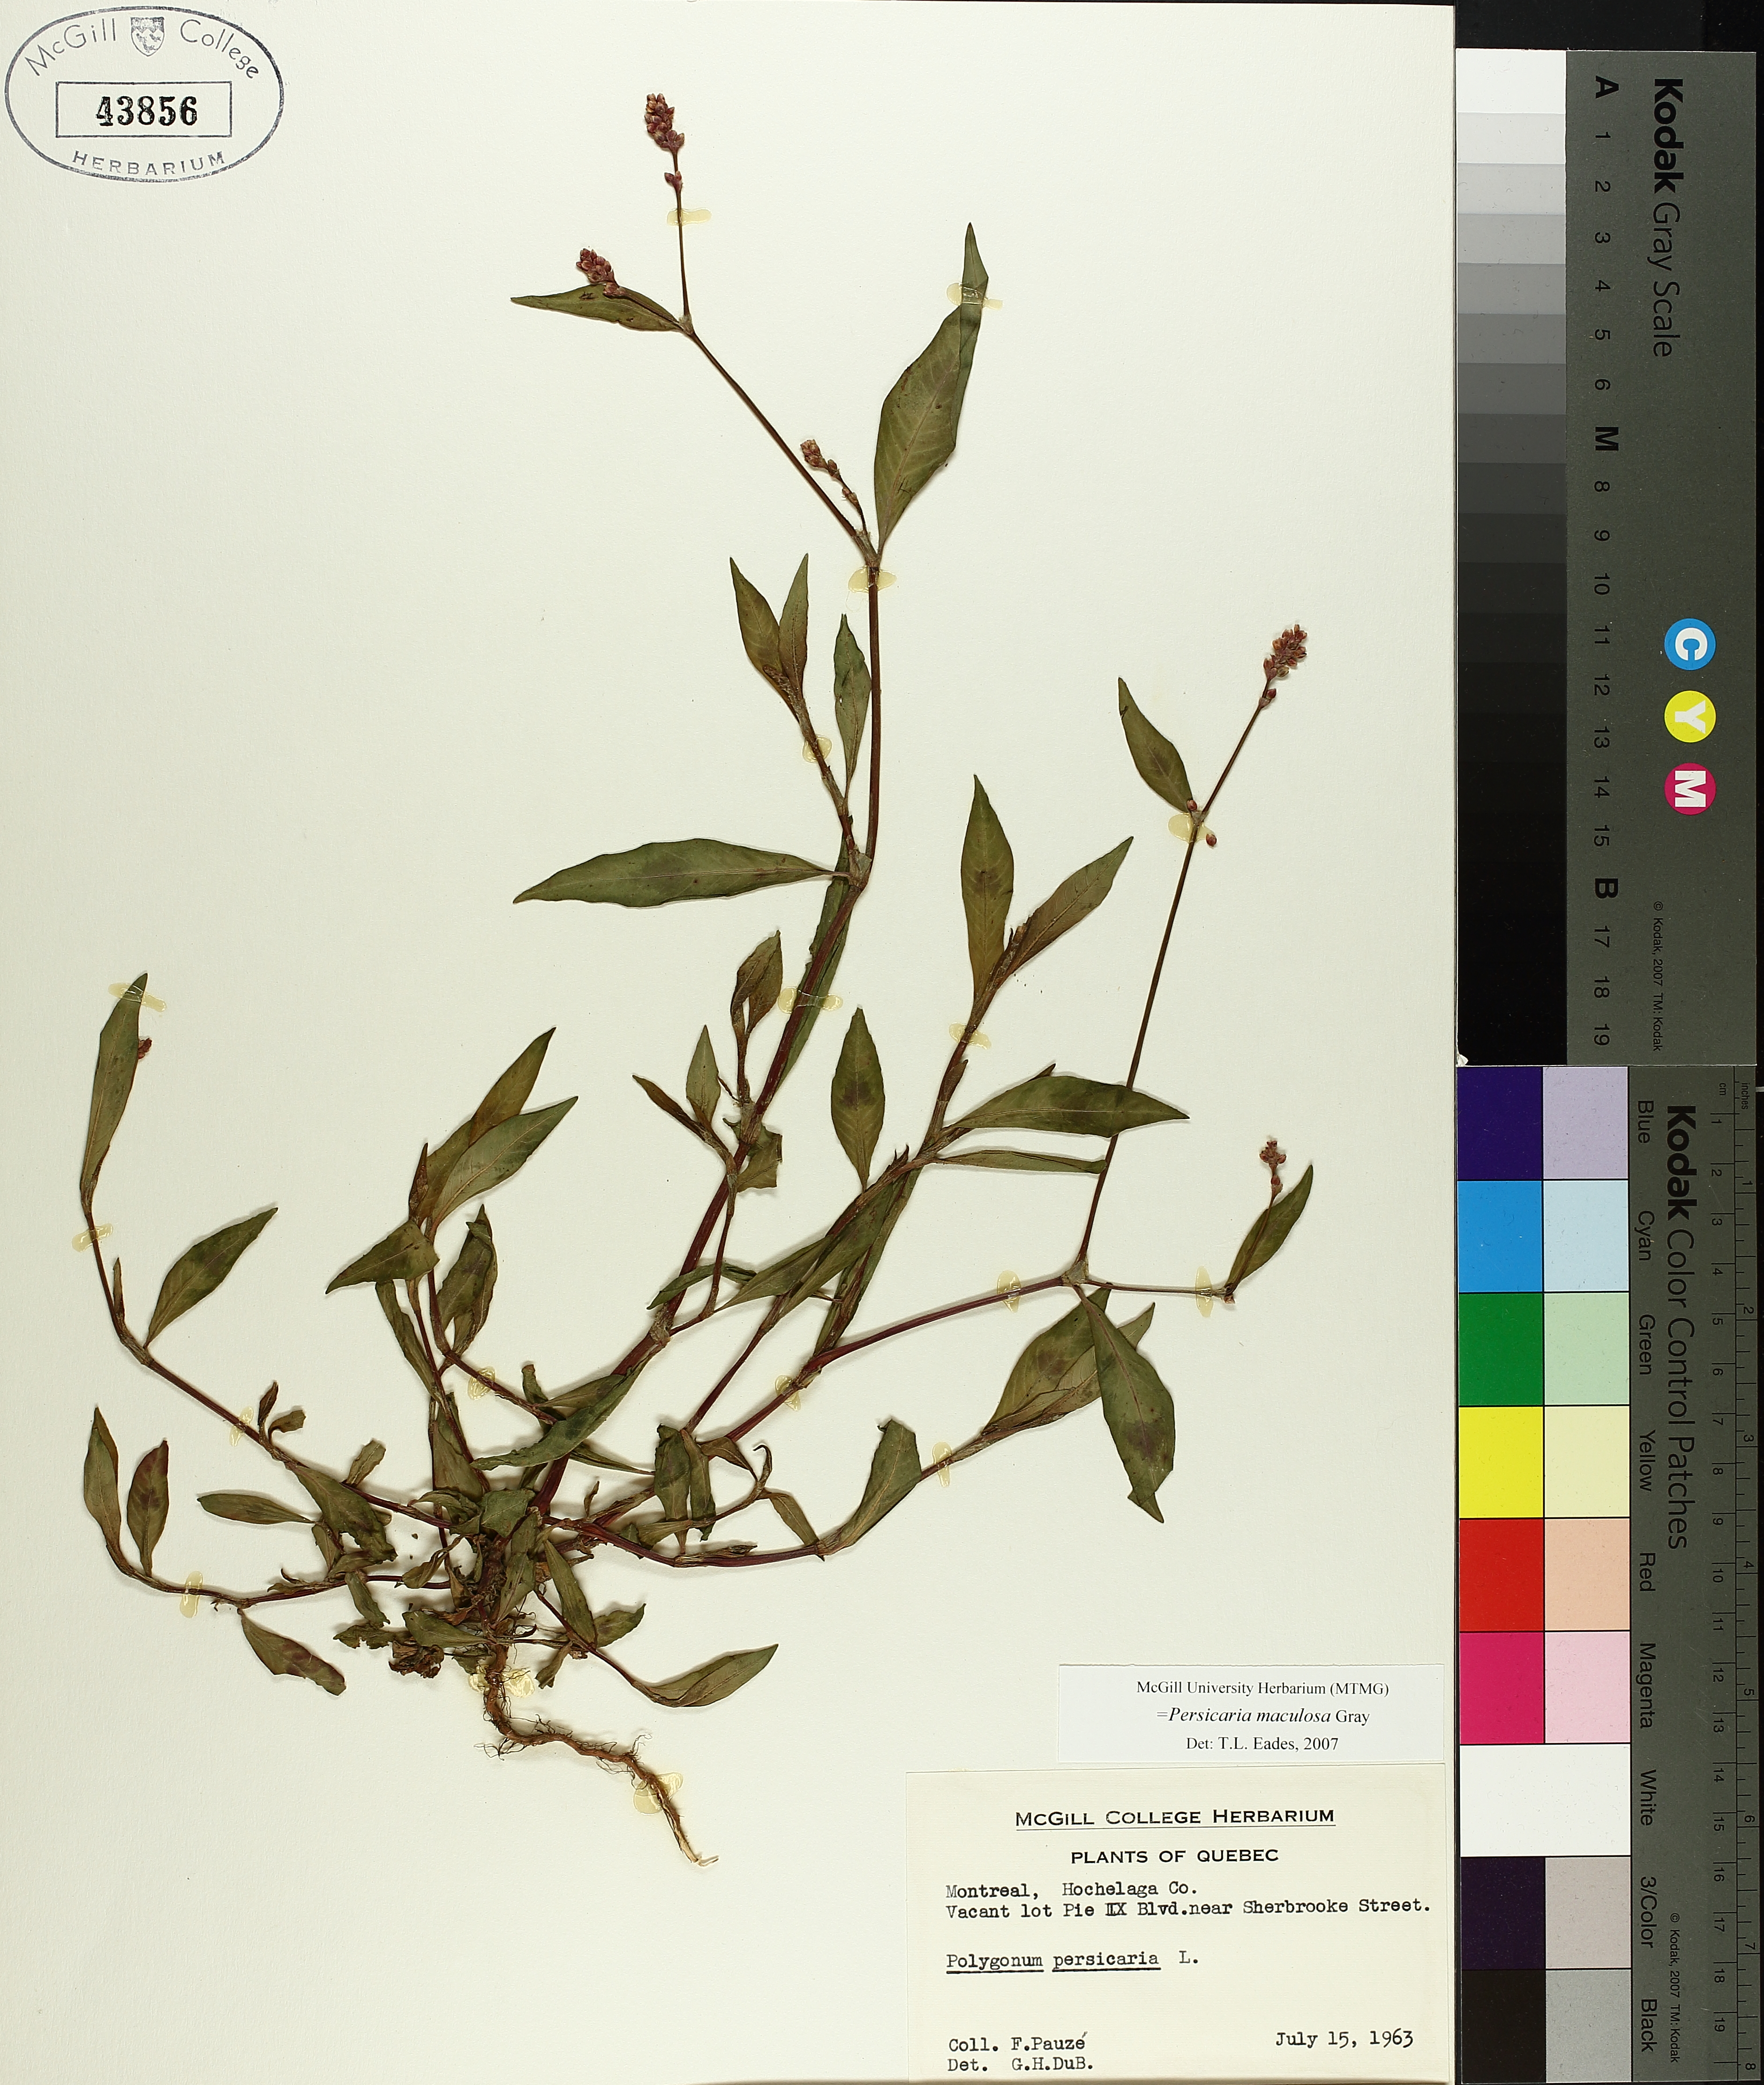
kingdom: Plantae
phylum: Tracheophyta
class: Magnoliopsida
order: Caryophyllales
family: Polygonaceae
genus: Persicaria
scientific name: Persicaria maculosa
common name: Redshank
